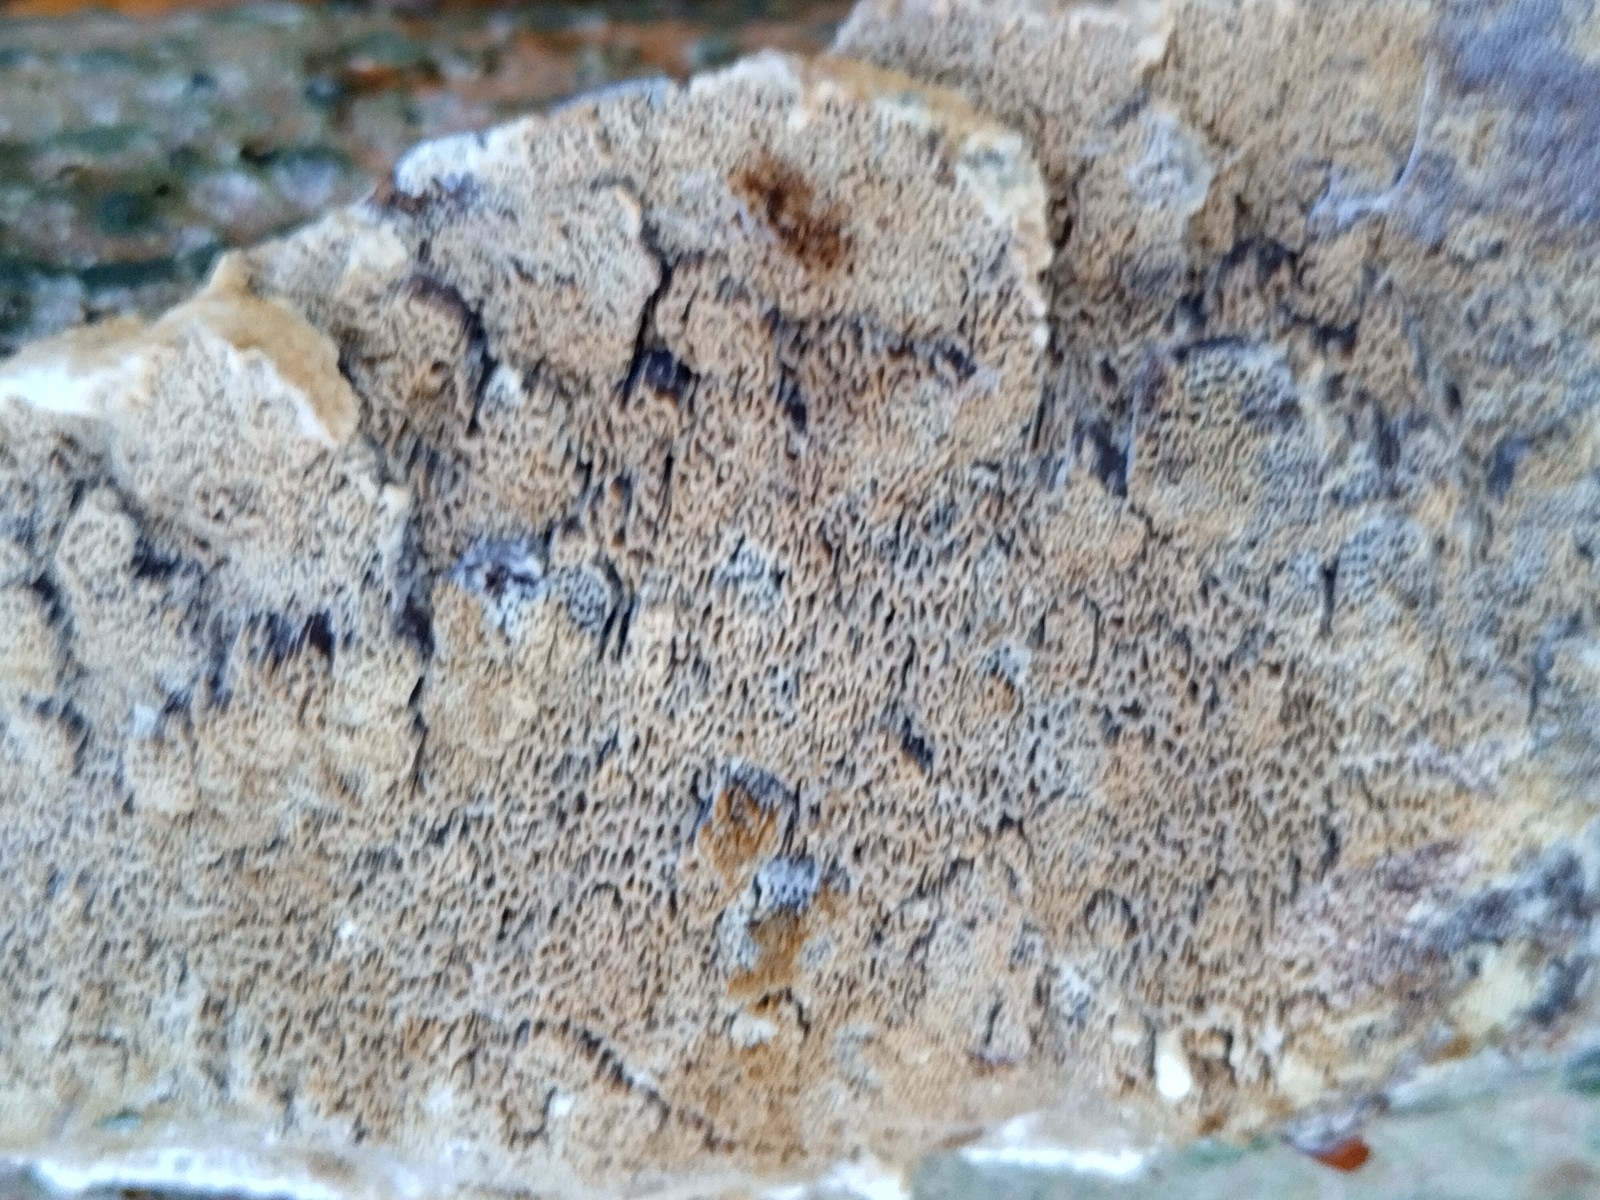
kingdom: Fungi
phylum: Basidiomycota
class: Agaricomycetes
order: Hymenochaetales
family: Hymenochaetaceae
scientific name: Hymenochaetaceae
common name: børstesvampfamilien
